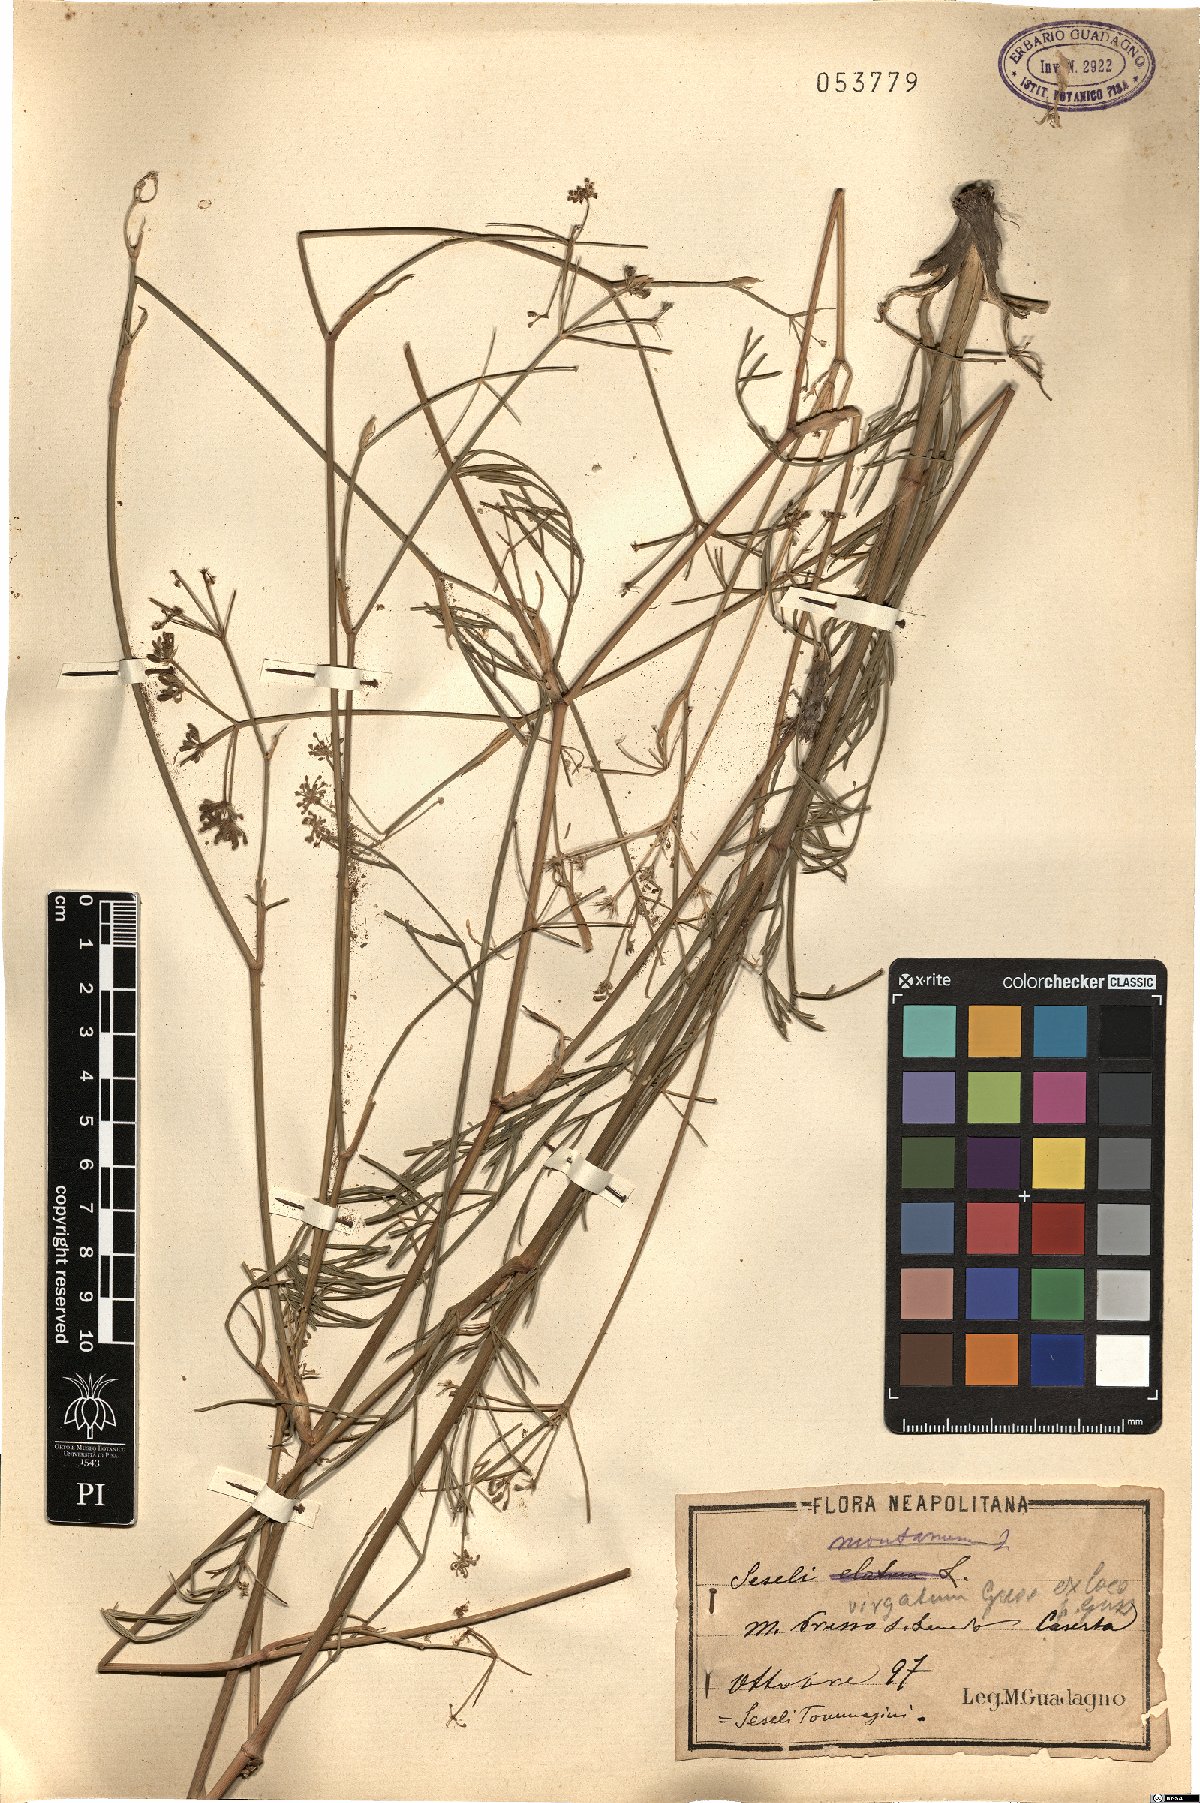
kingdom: Plantae
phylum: Tracheophyta
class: Magnoliopsida
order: Apiales
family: Apiaceae
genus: Seseli
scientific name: Seseli montanum
